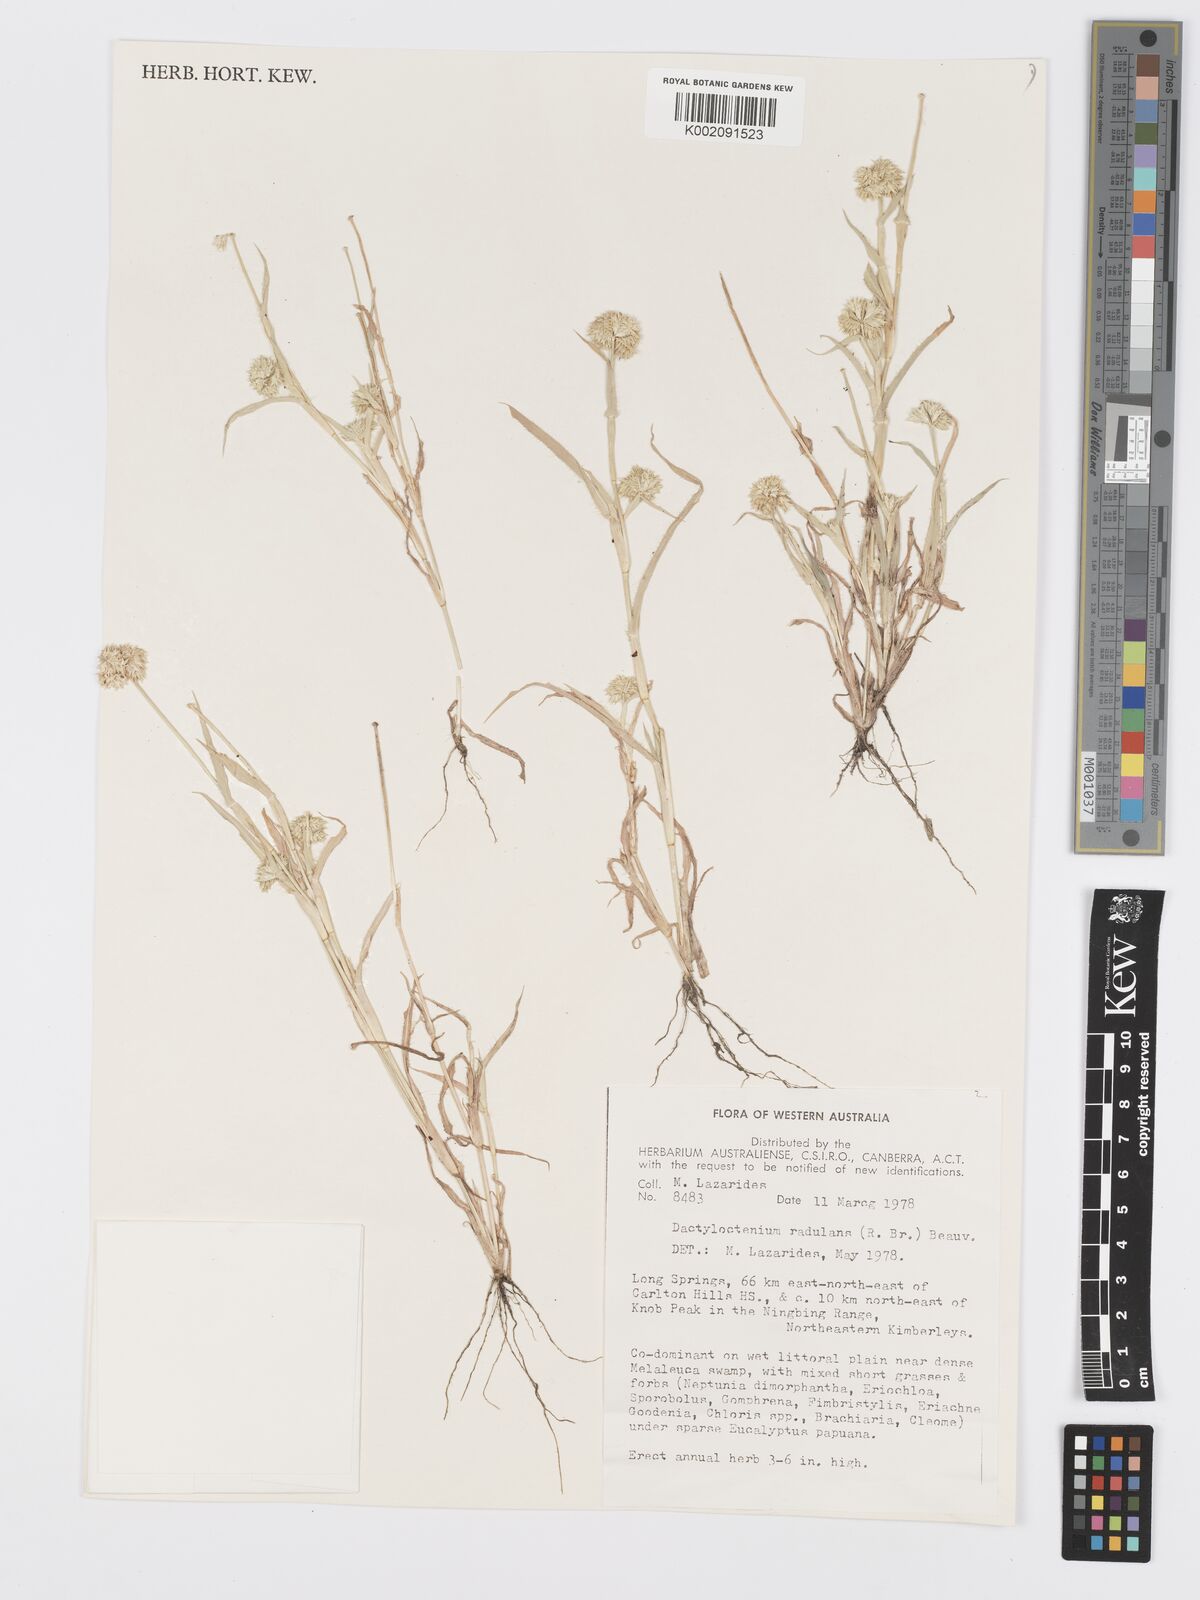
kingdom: Plantae
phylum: Tracheophyta
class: Liliopsida
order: Poales
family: Poaceae
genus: Dactyloctenium
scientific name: Dactyloctenium radulans
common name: Button-grass
